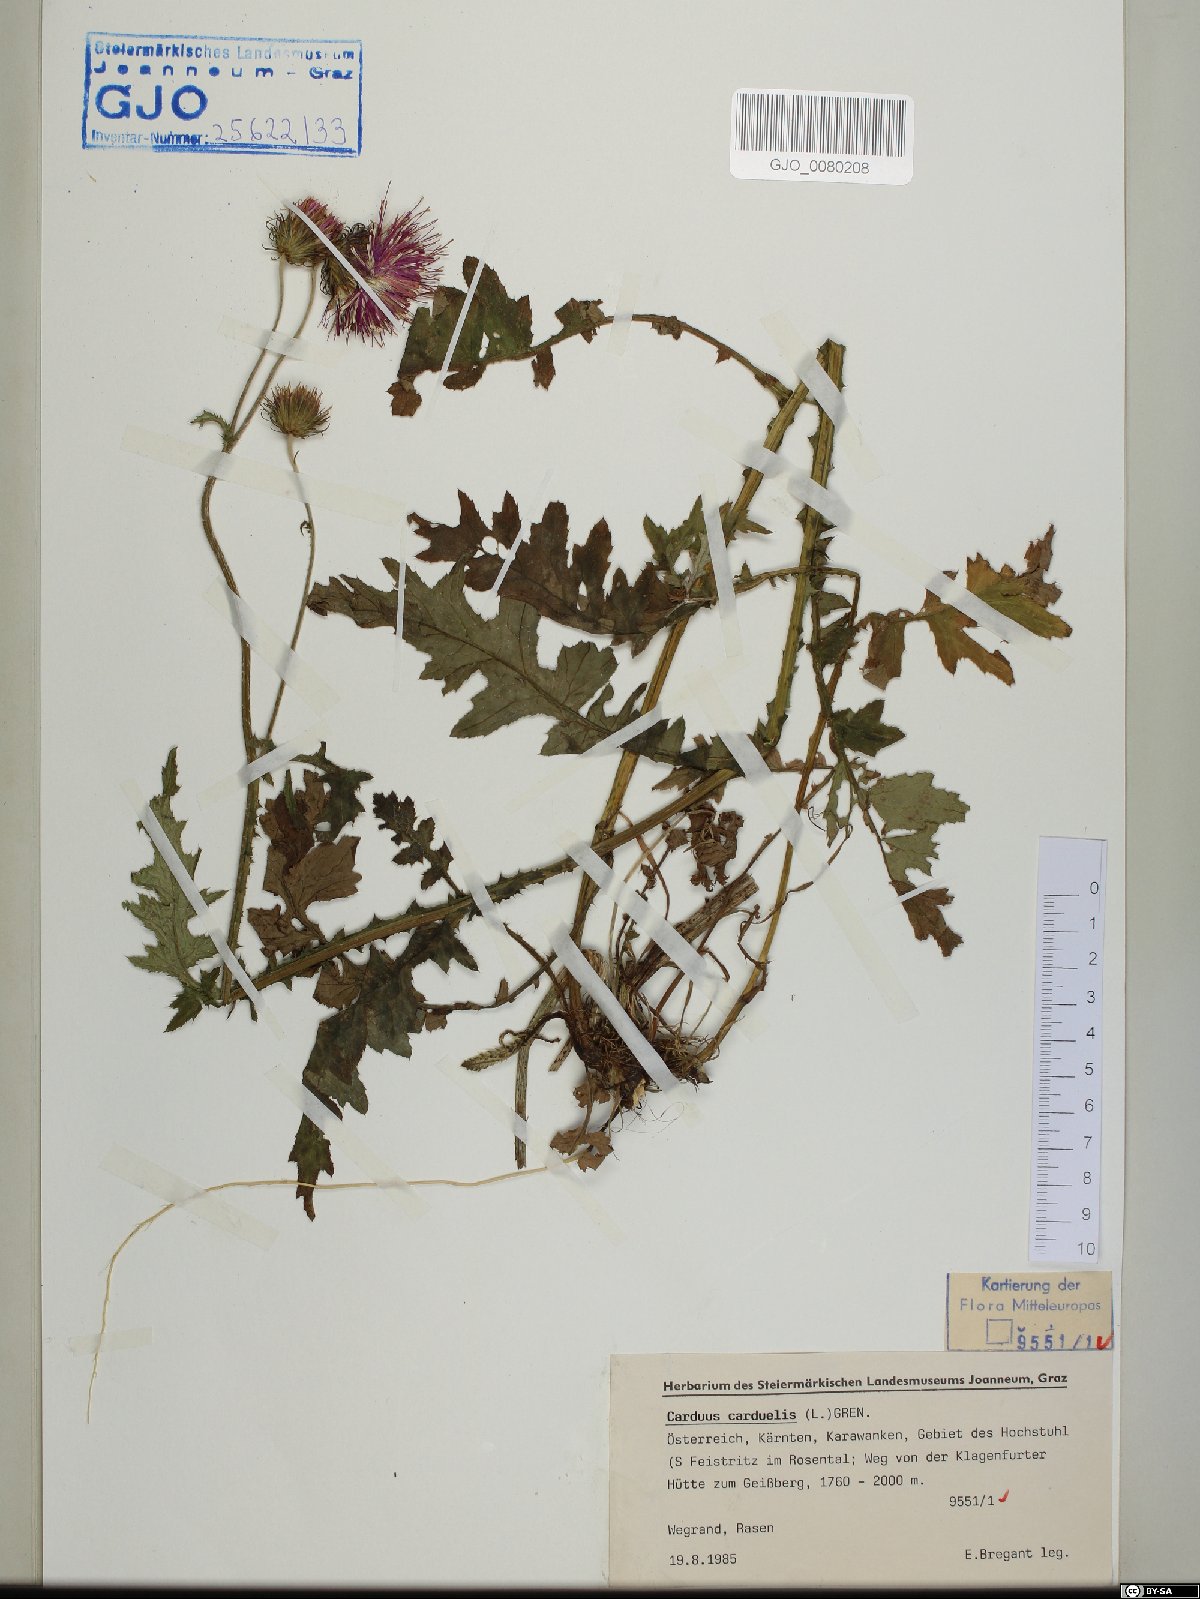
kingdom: Plantae
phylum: Tracheophyta
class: Magnoliopsida
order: Asterales
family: Asteraceae
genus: Carduus
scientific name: Carduus carduelis
